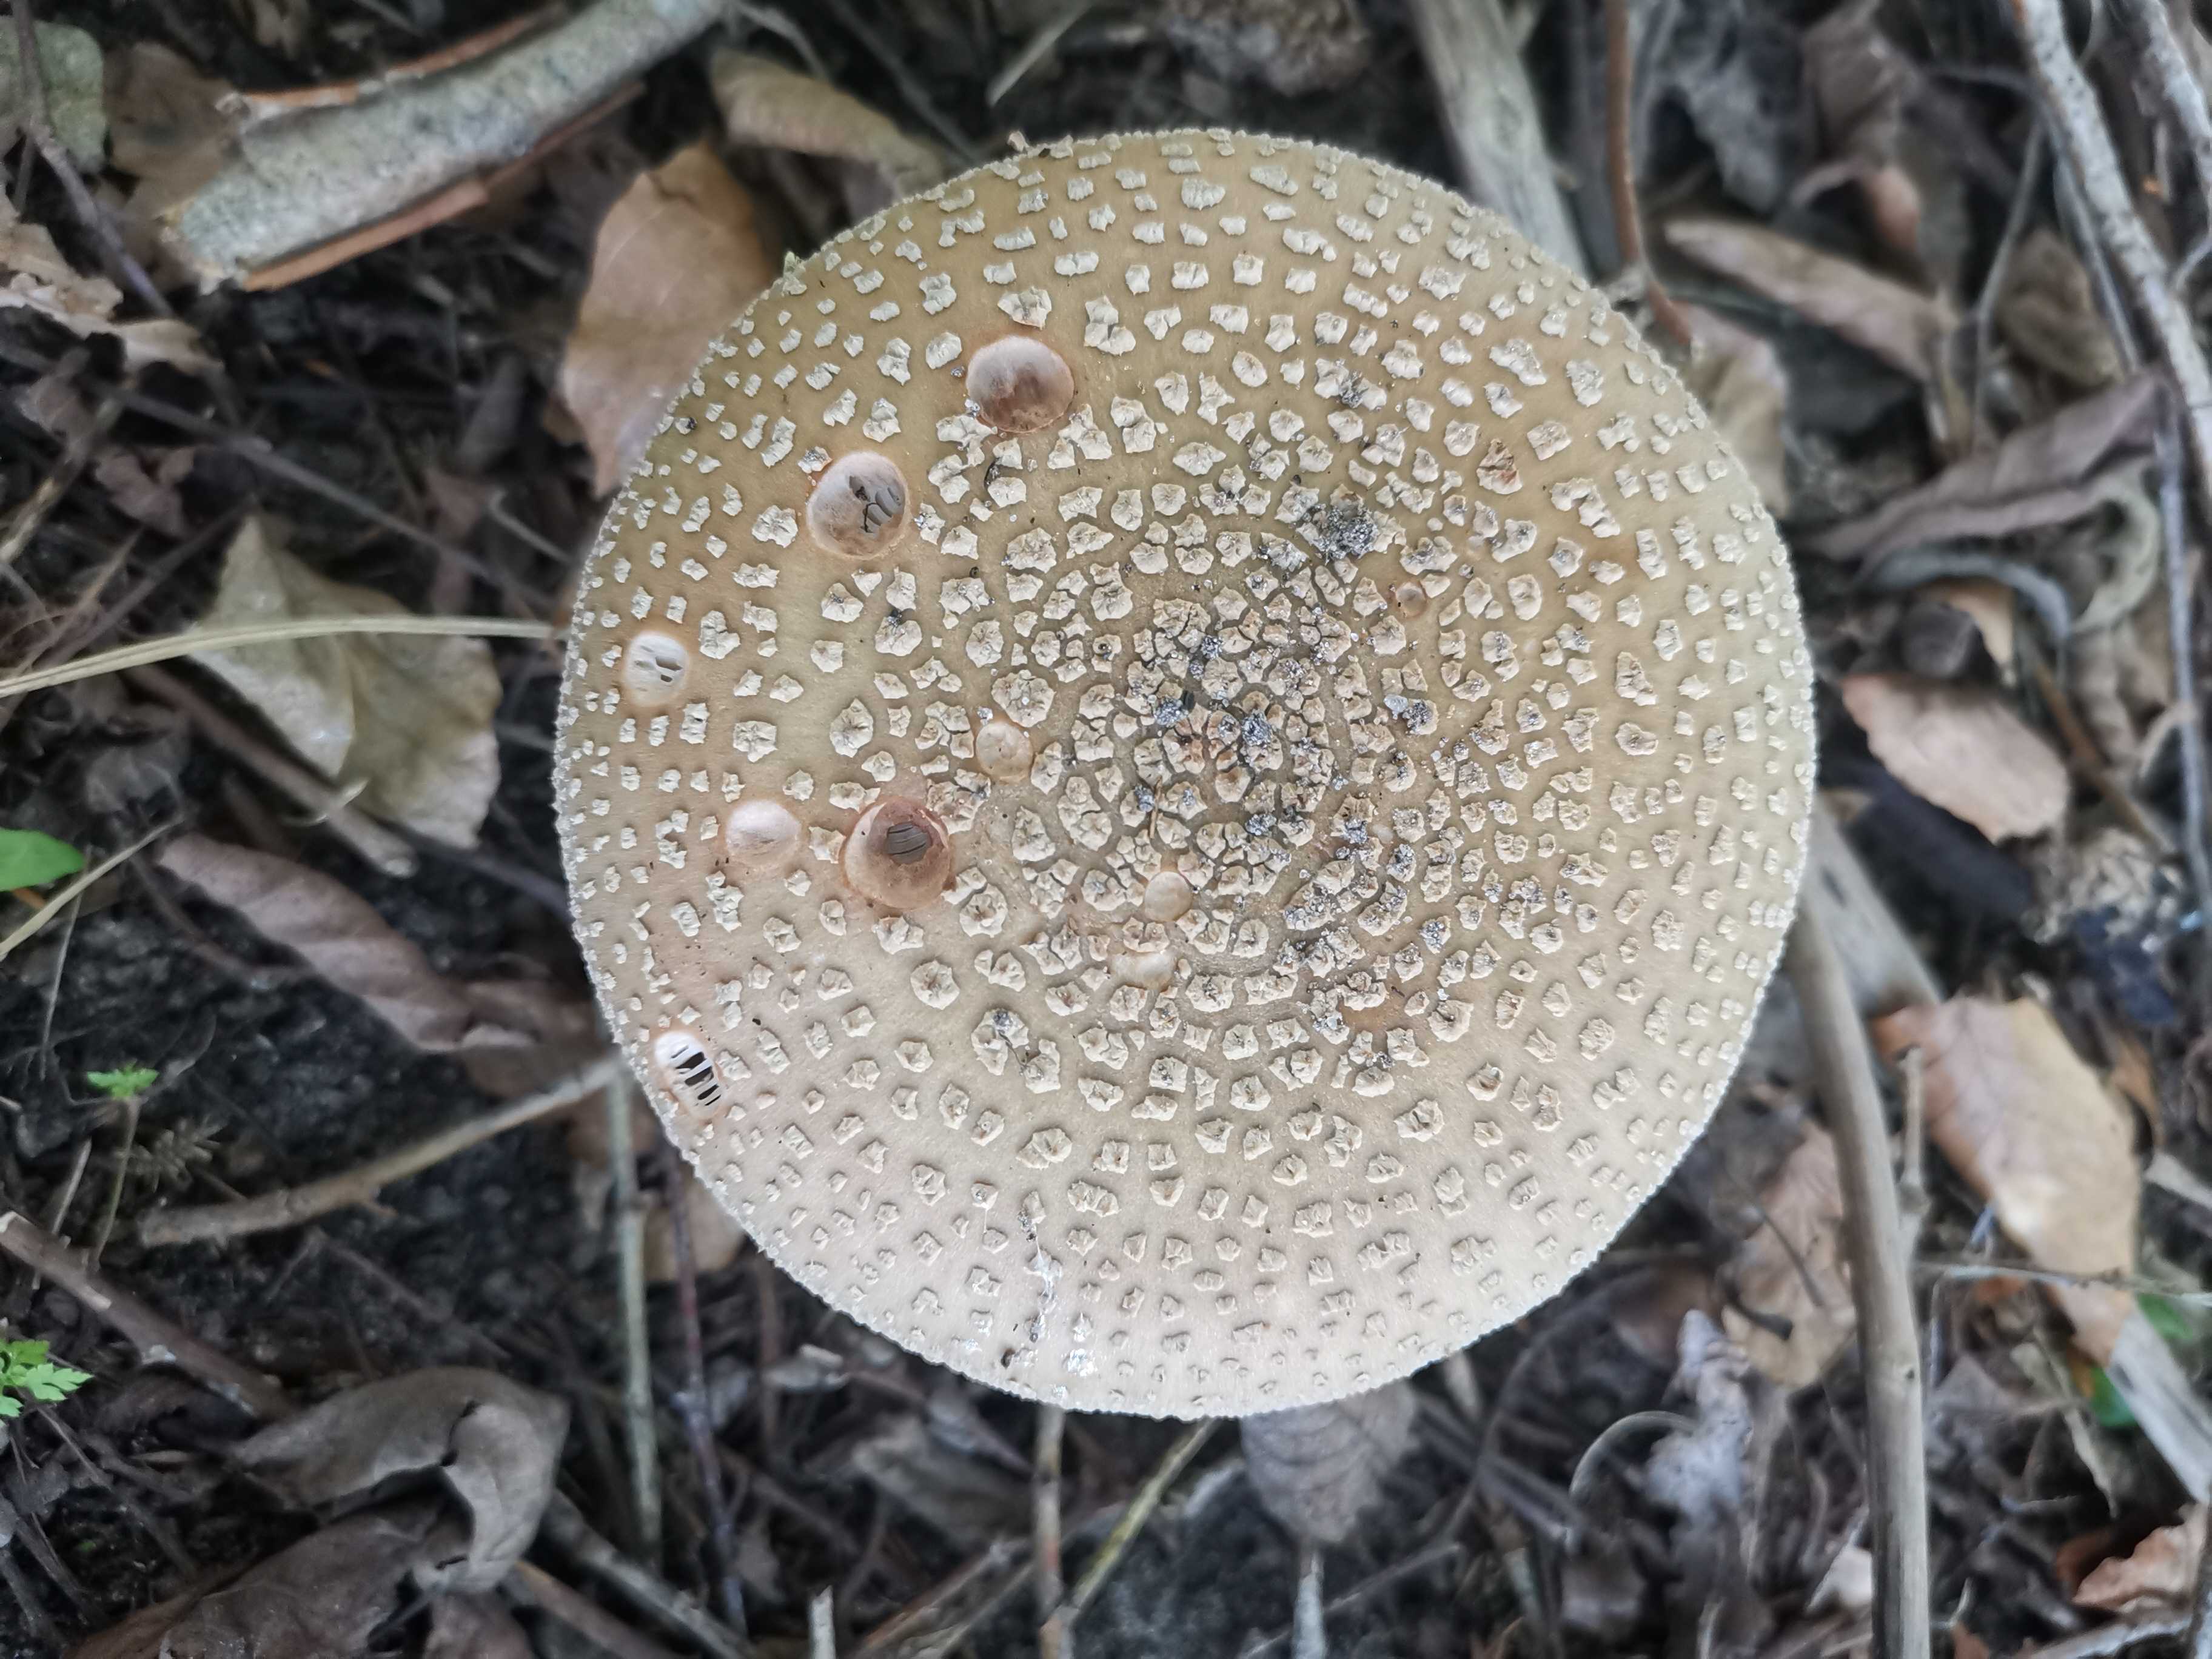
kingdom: Fungi
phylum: Basidiomycota
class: Agaricomycetes
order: Agaricales
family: Amanitaceae
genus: Amanita
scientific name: Amanita rubescens
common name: rødmende fluesvamp
